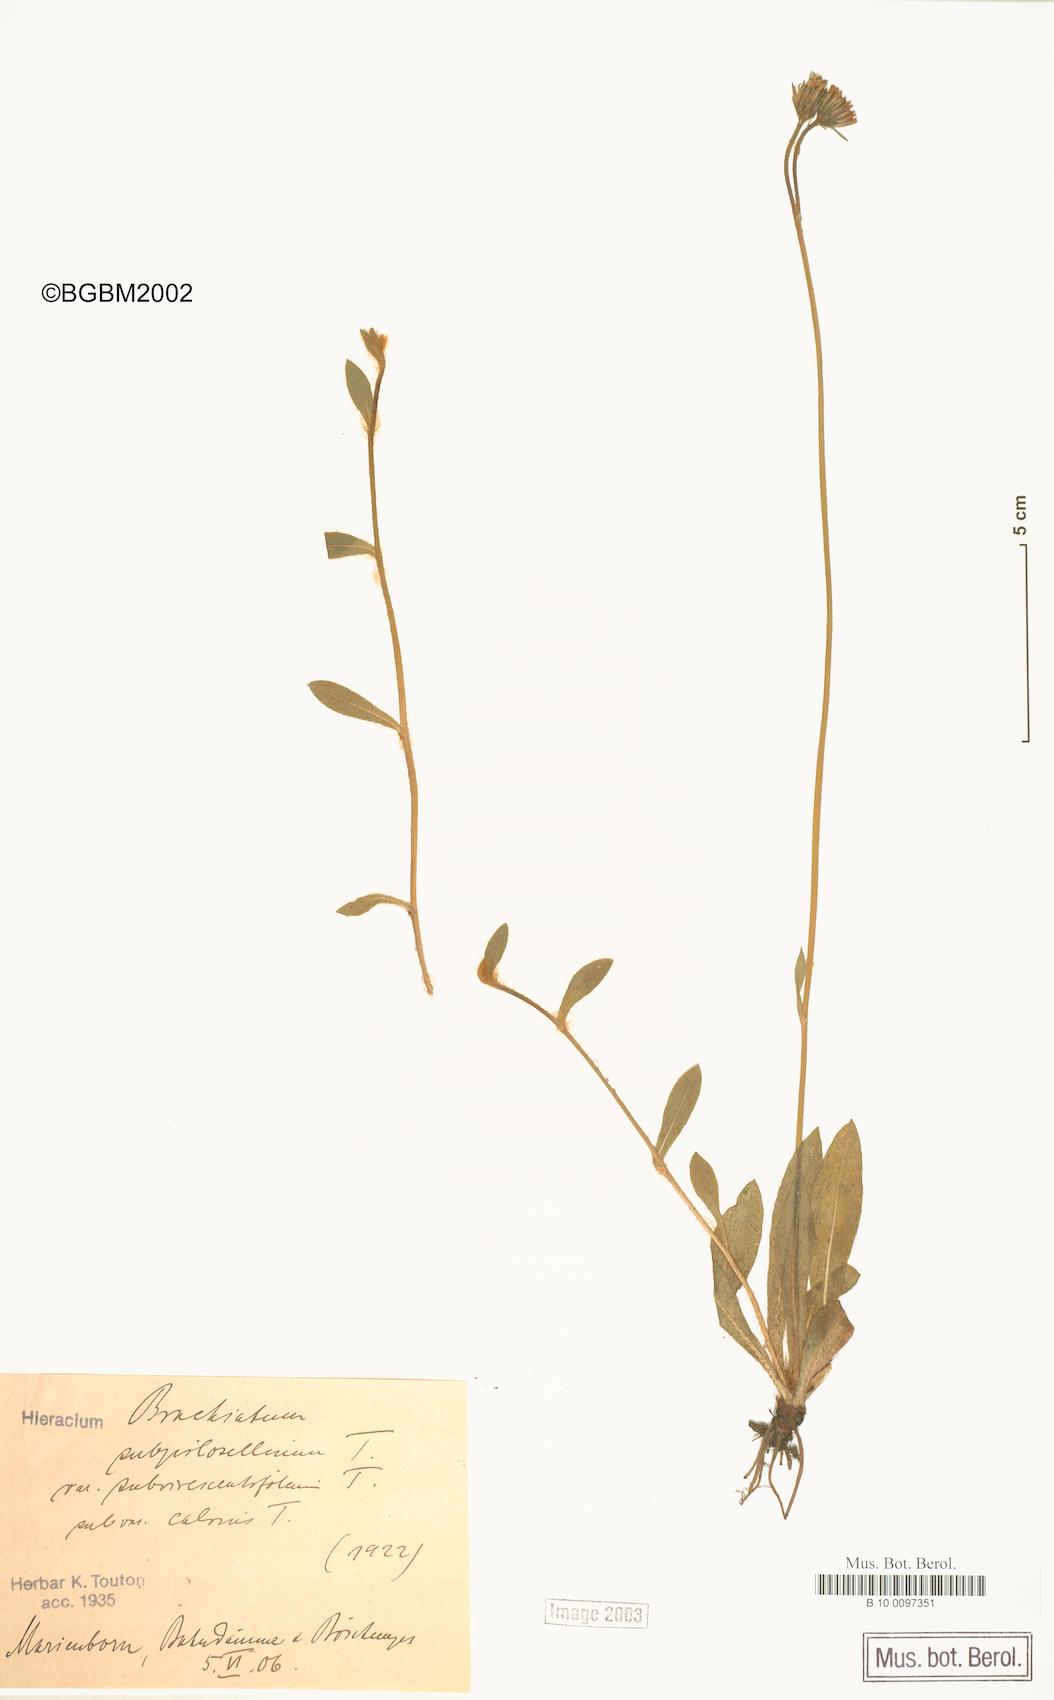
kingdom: Plantae
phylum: Tracheophyta
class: Magnoliopsida
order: Asterales
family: Asteraceae
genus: Pilosella
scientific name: Pilosella acutifolia
